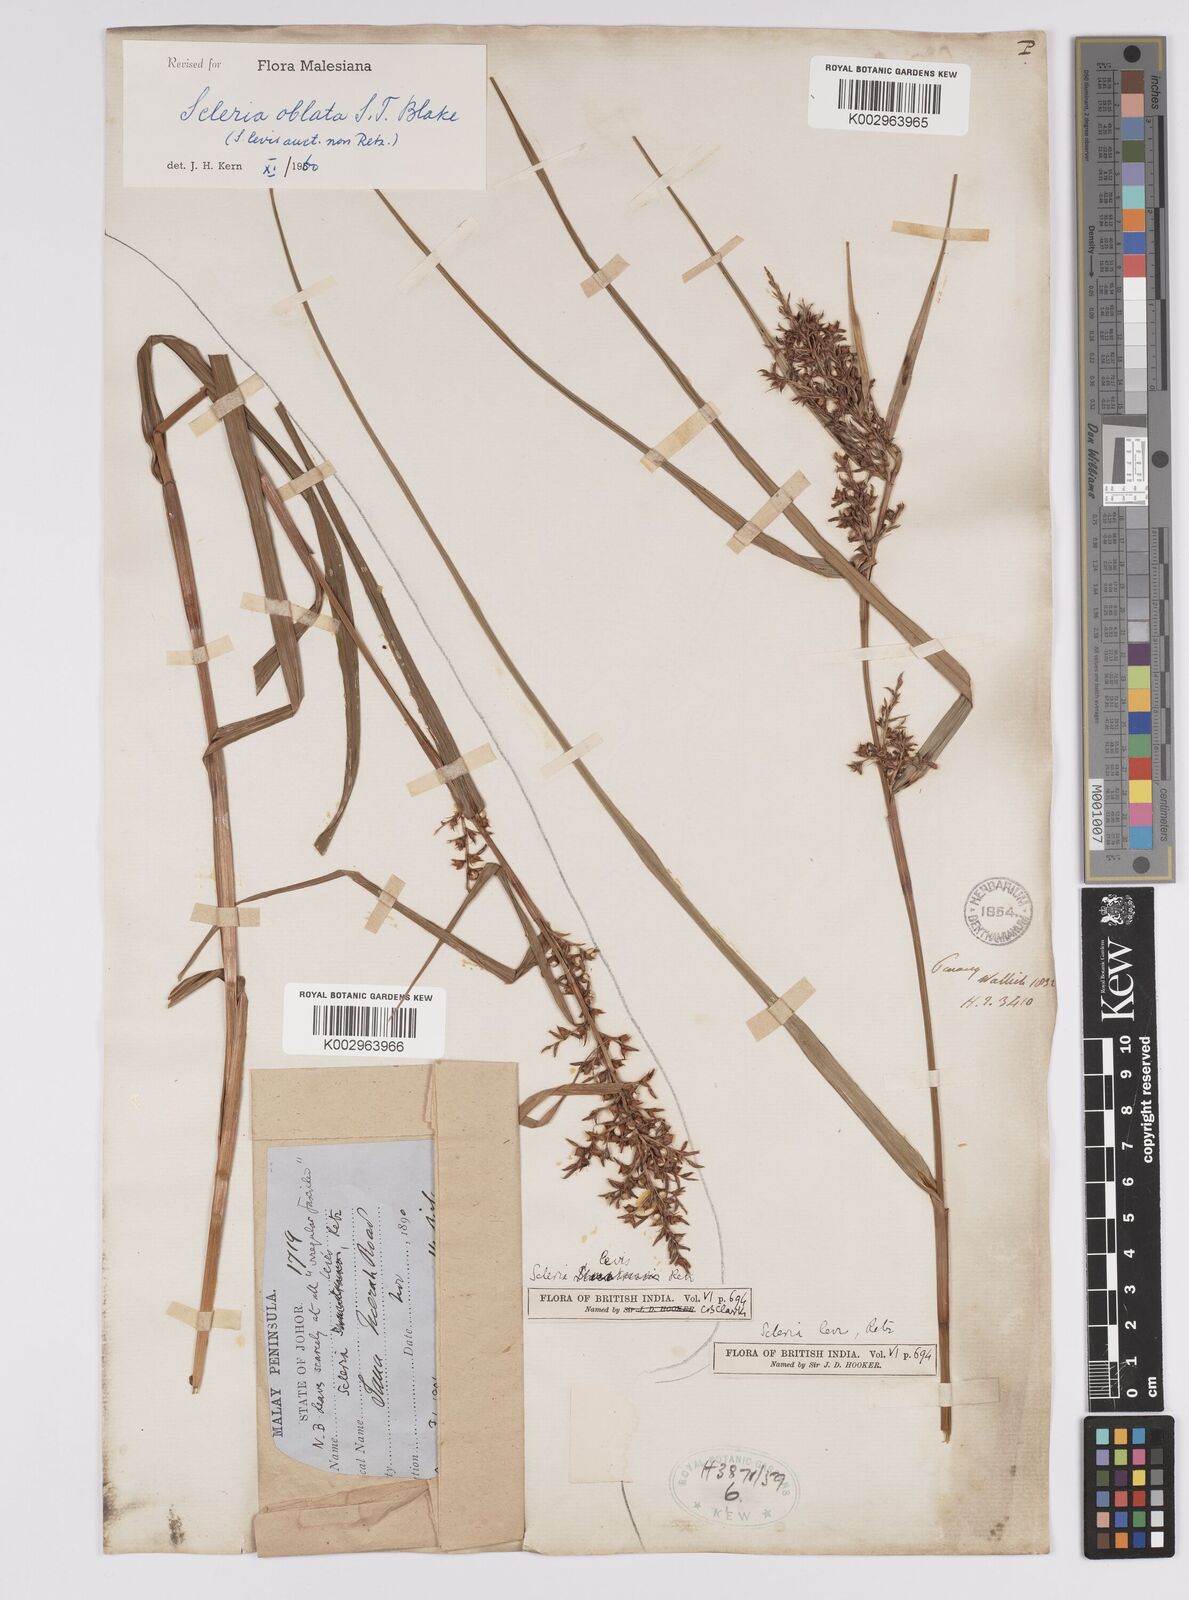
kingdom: Plantae
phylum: Tracheophyta
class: Liliopsida
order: Poales
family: Cyperaceae
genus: Scleria
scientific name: Scleria oblata
